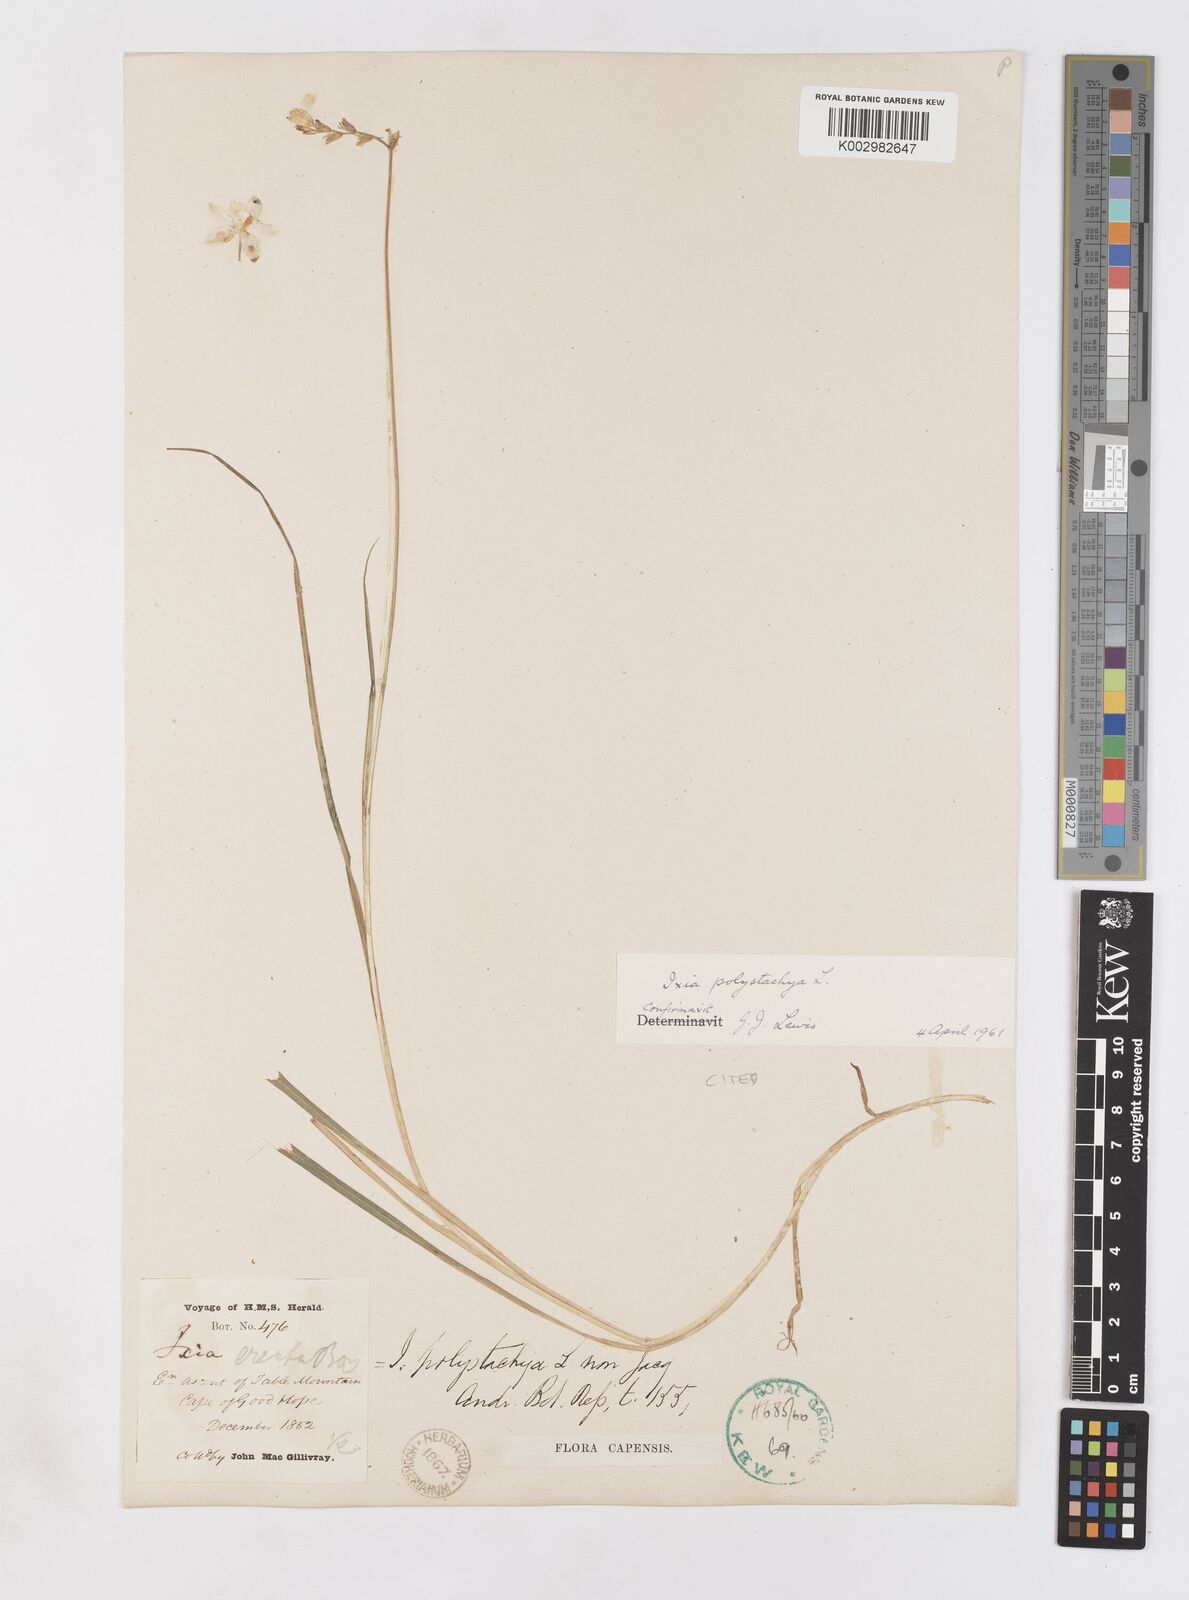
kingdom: Plantae
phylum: Tracheophyta
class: Liliopsida
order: Asparagales
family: Iridaceae
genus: Ixia
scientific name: Ixia polystachya
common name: White-and-yellow-flower cornlily
